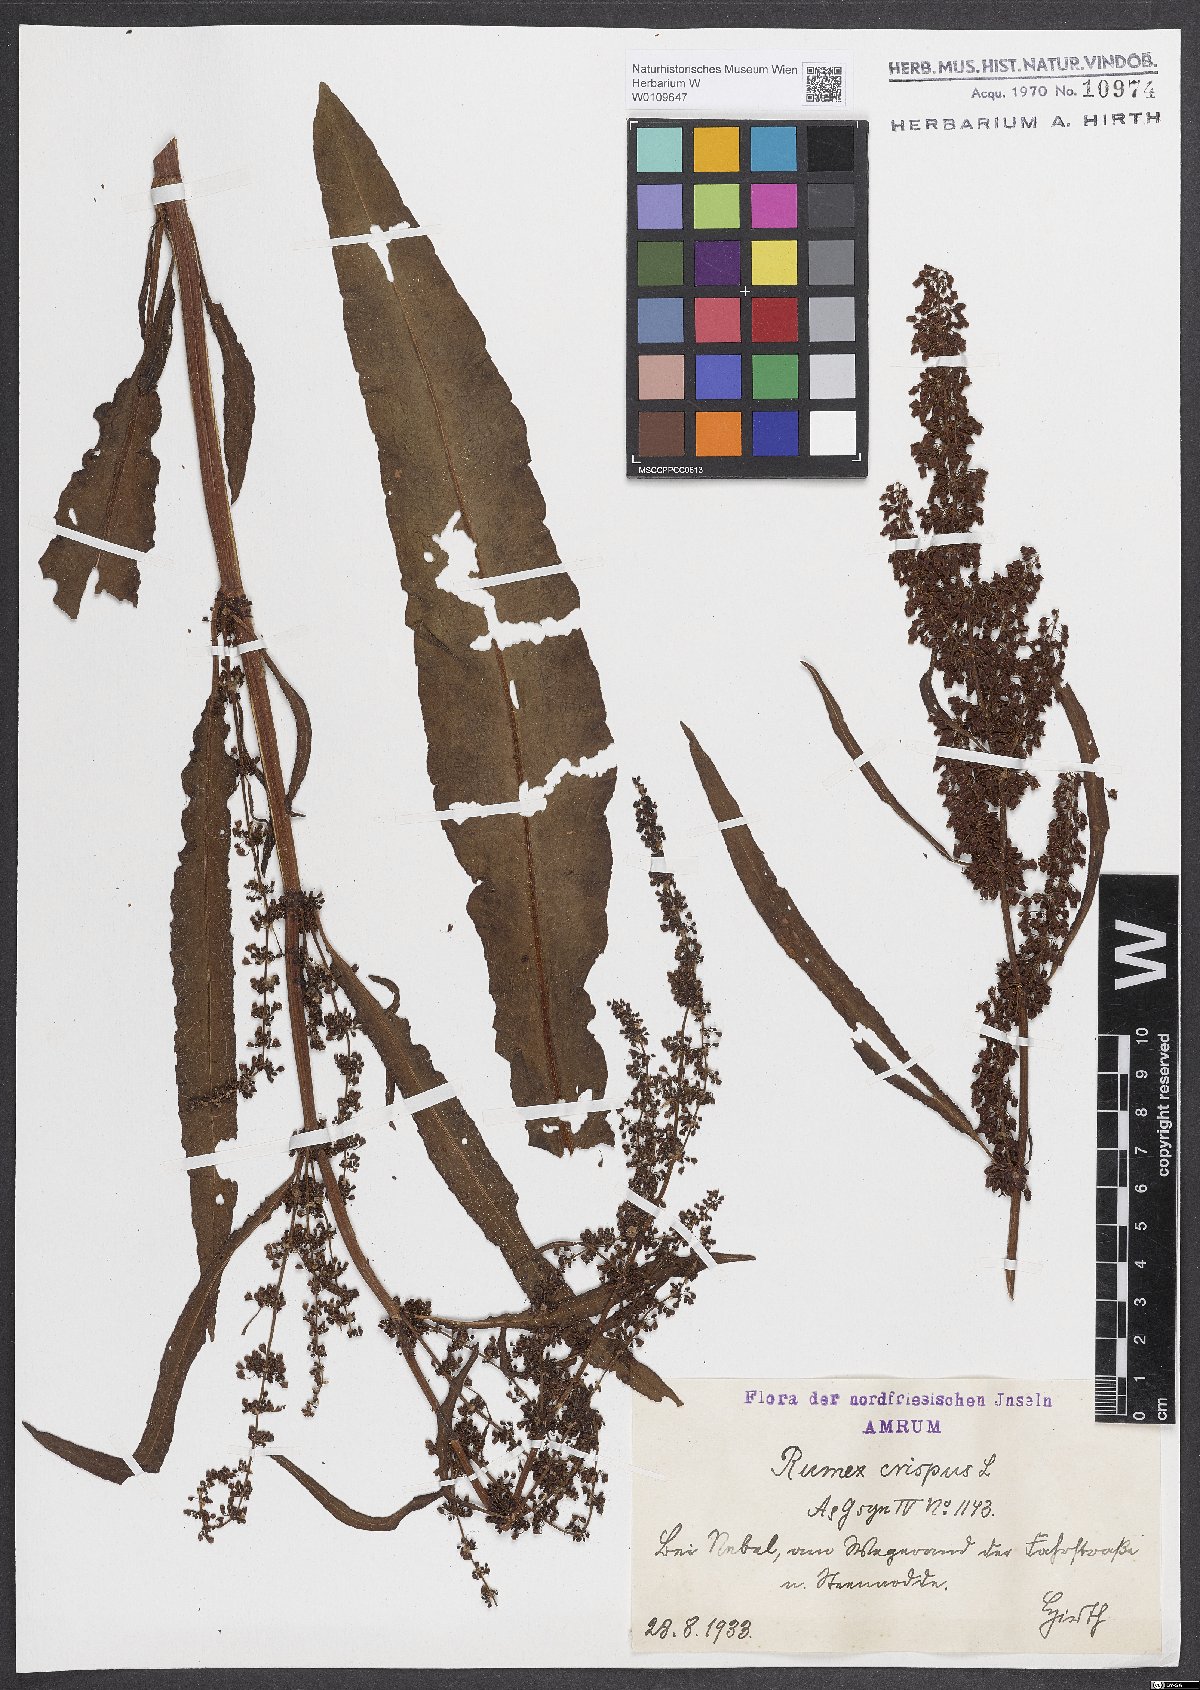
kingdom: Plantae
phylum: Tracheophyta
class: Magnoliopsida
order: Caryophyllales
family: Polygonaceae
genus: Rumex
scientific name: Rumex crispus
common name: Curled dock
